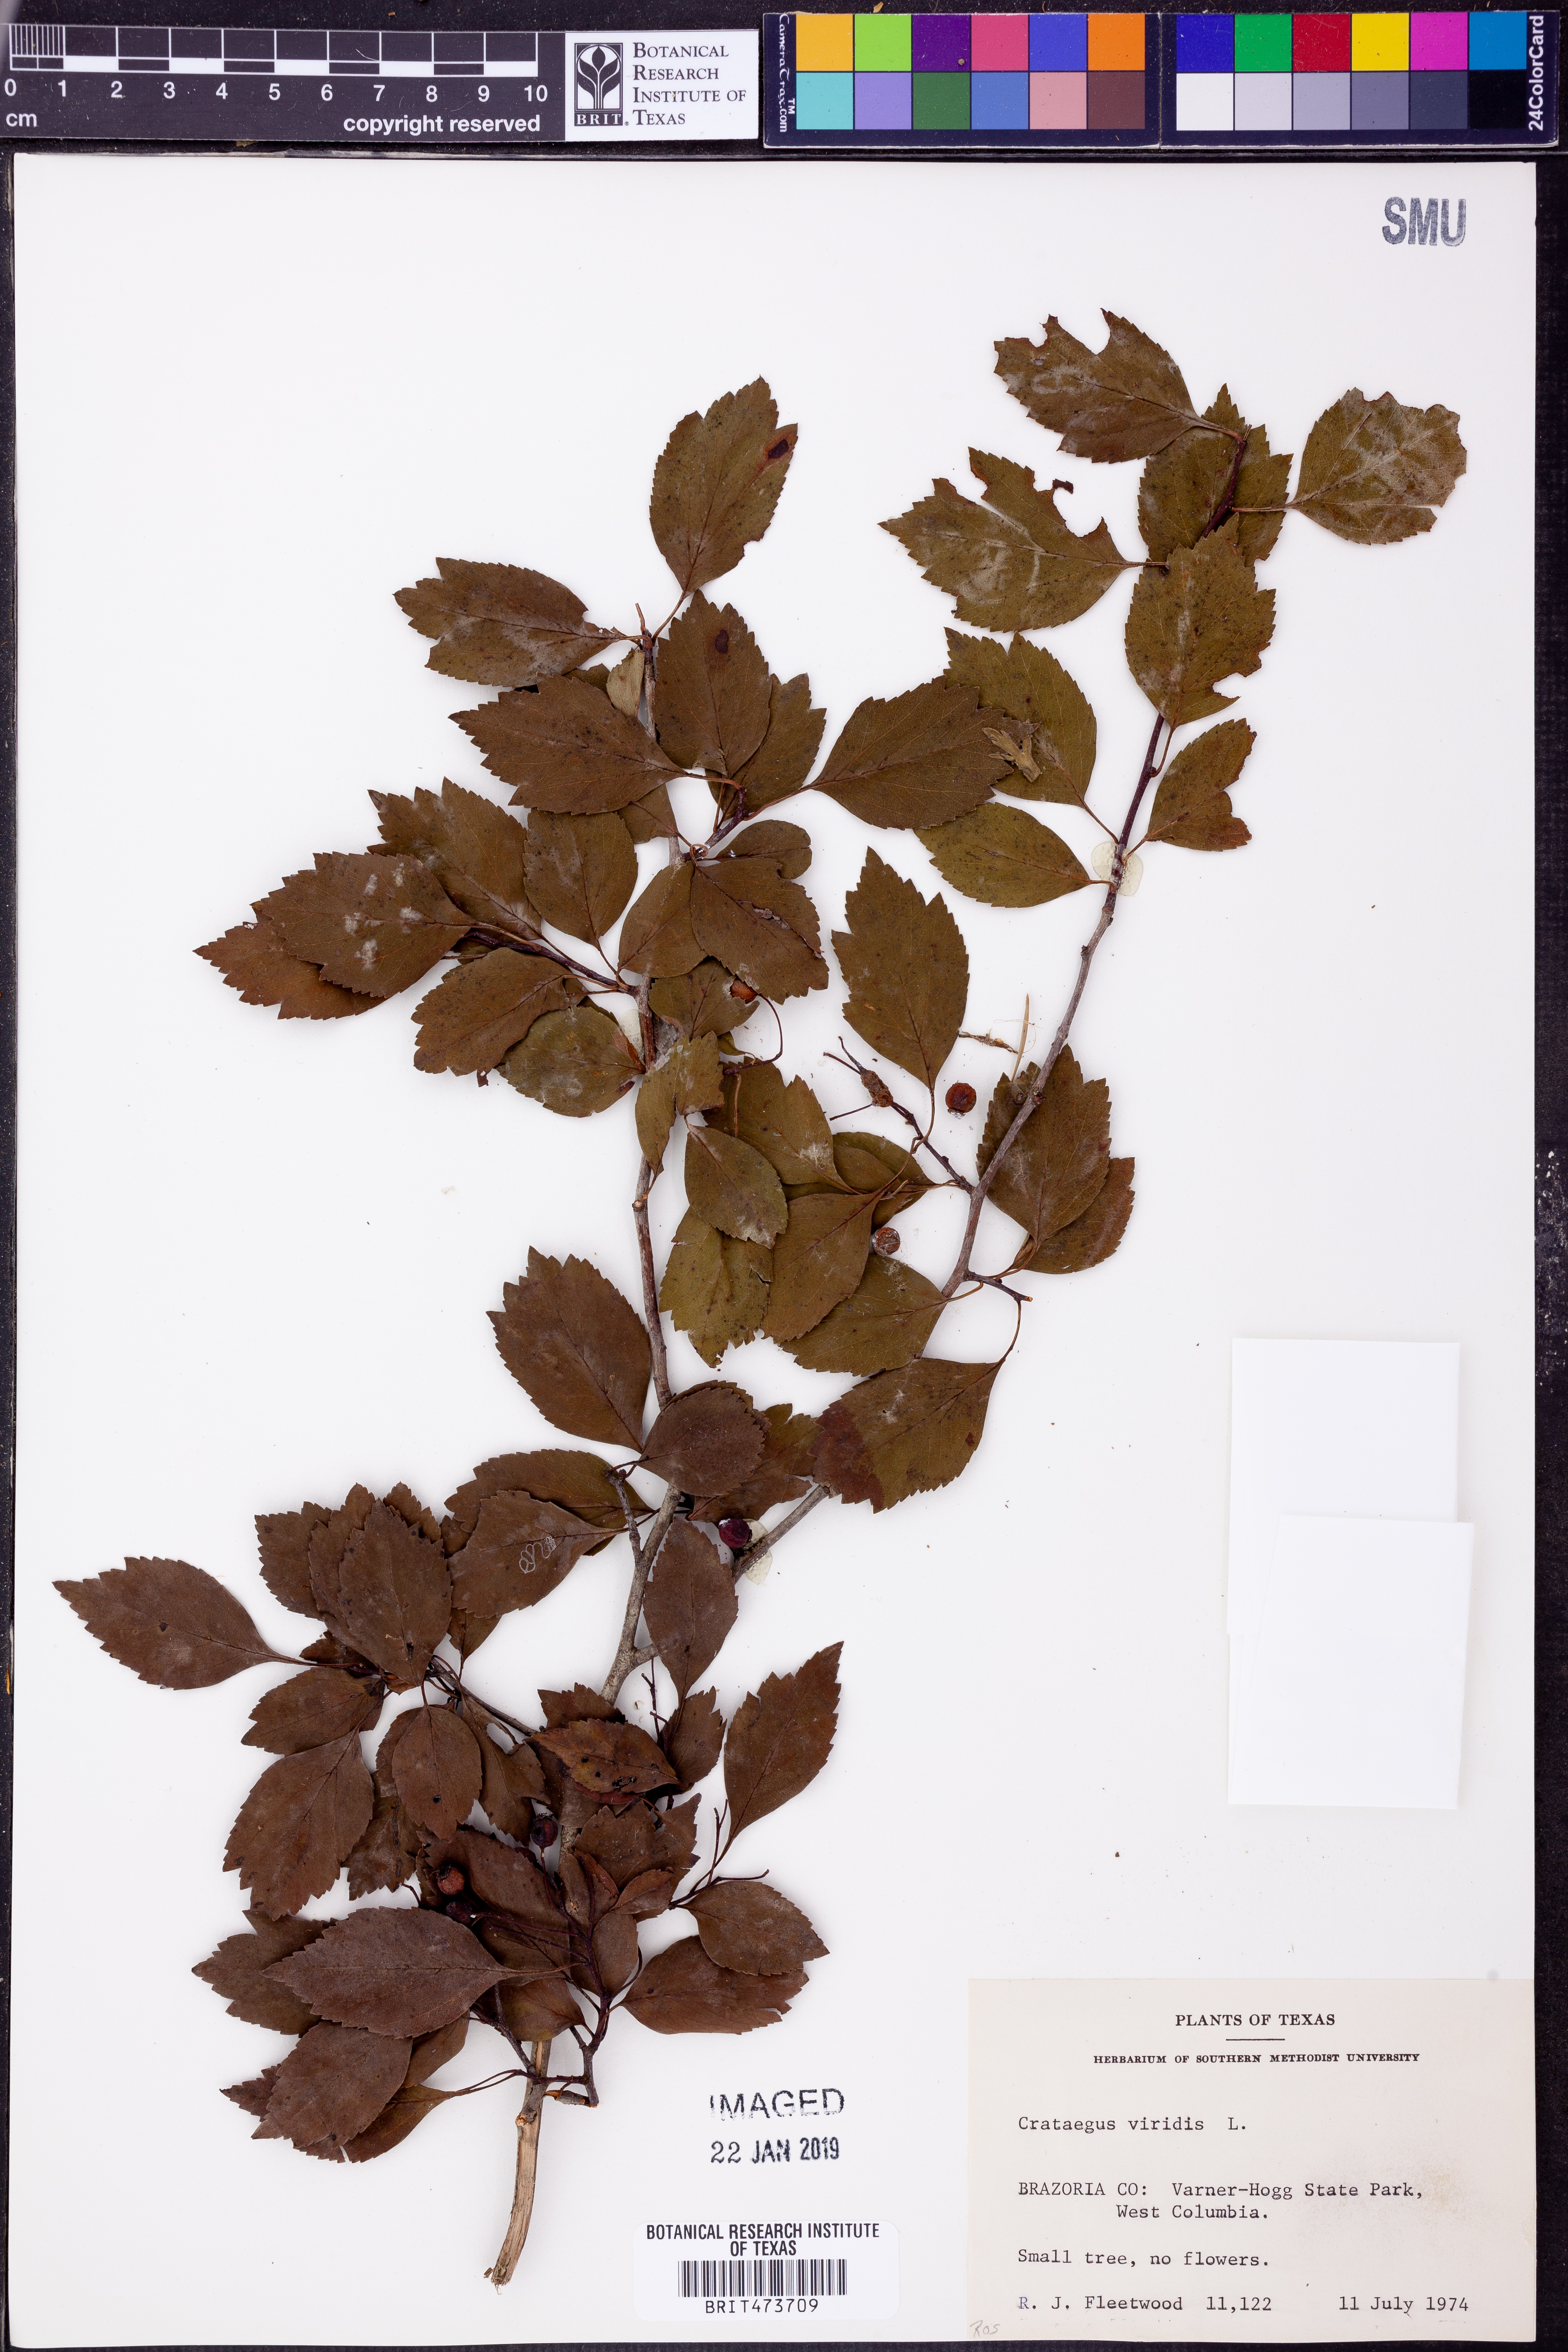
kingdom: Plantae
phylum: Tracheophyta
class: Magnoliopsida
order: Rosales
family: Rosaceae
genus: Crataegus
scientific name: Crataegus viridis
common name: Southernthorn
